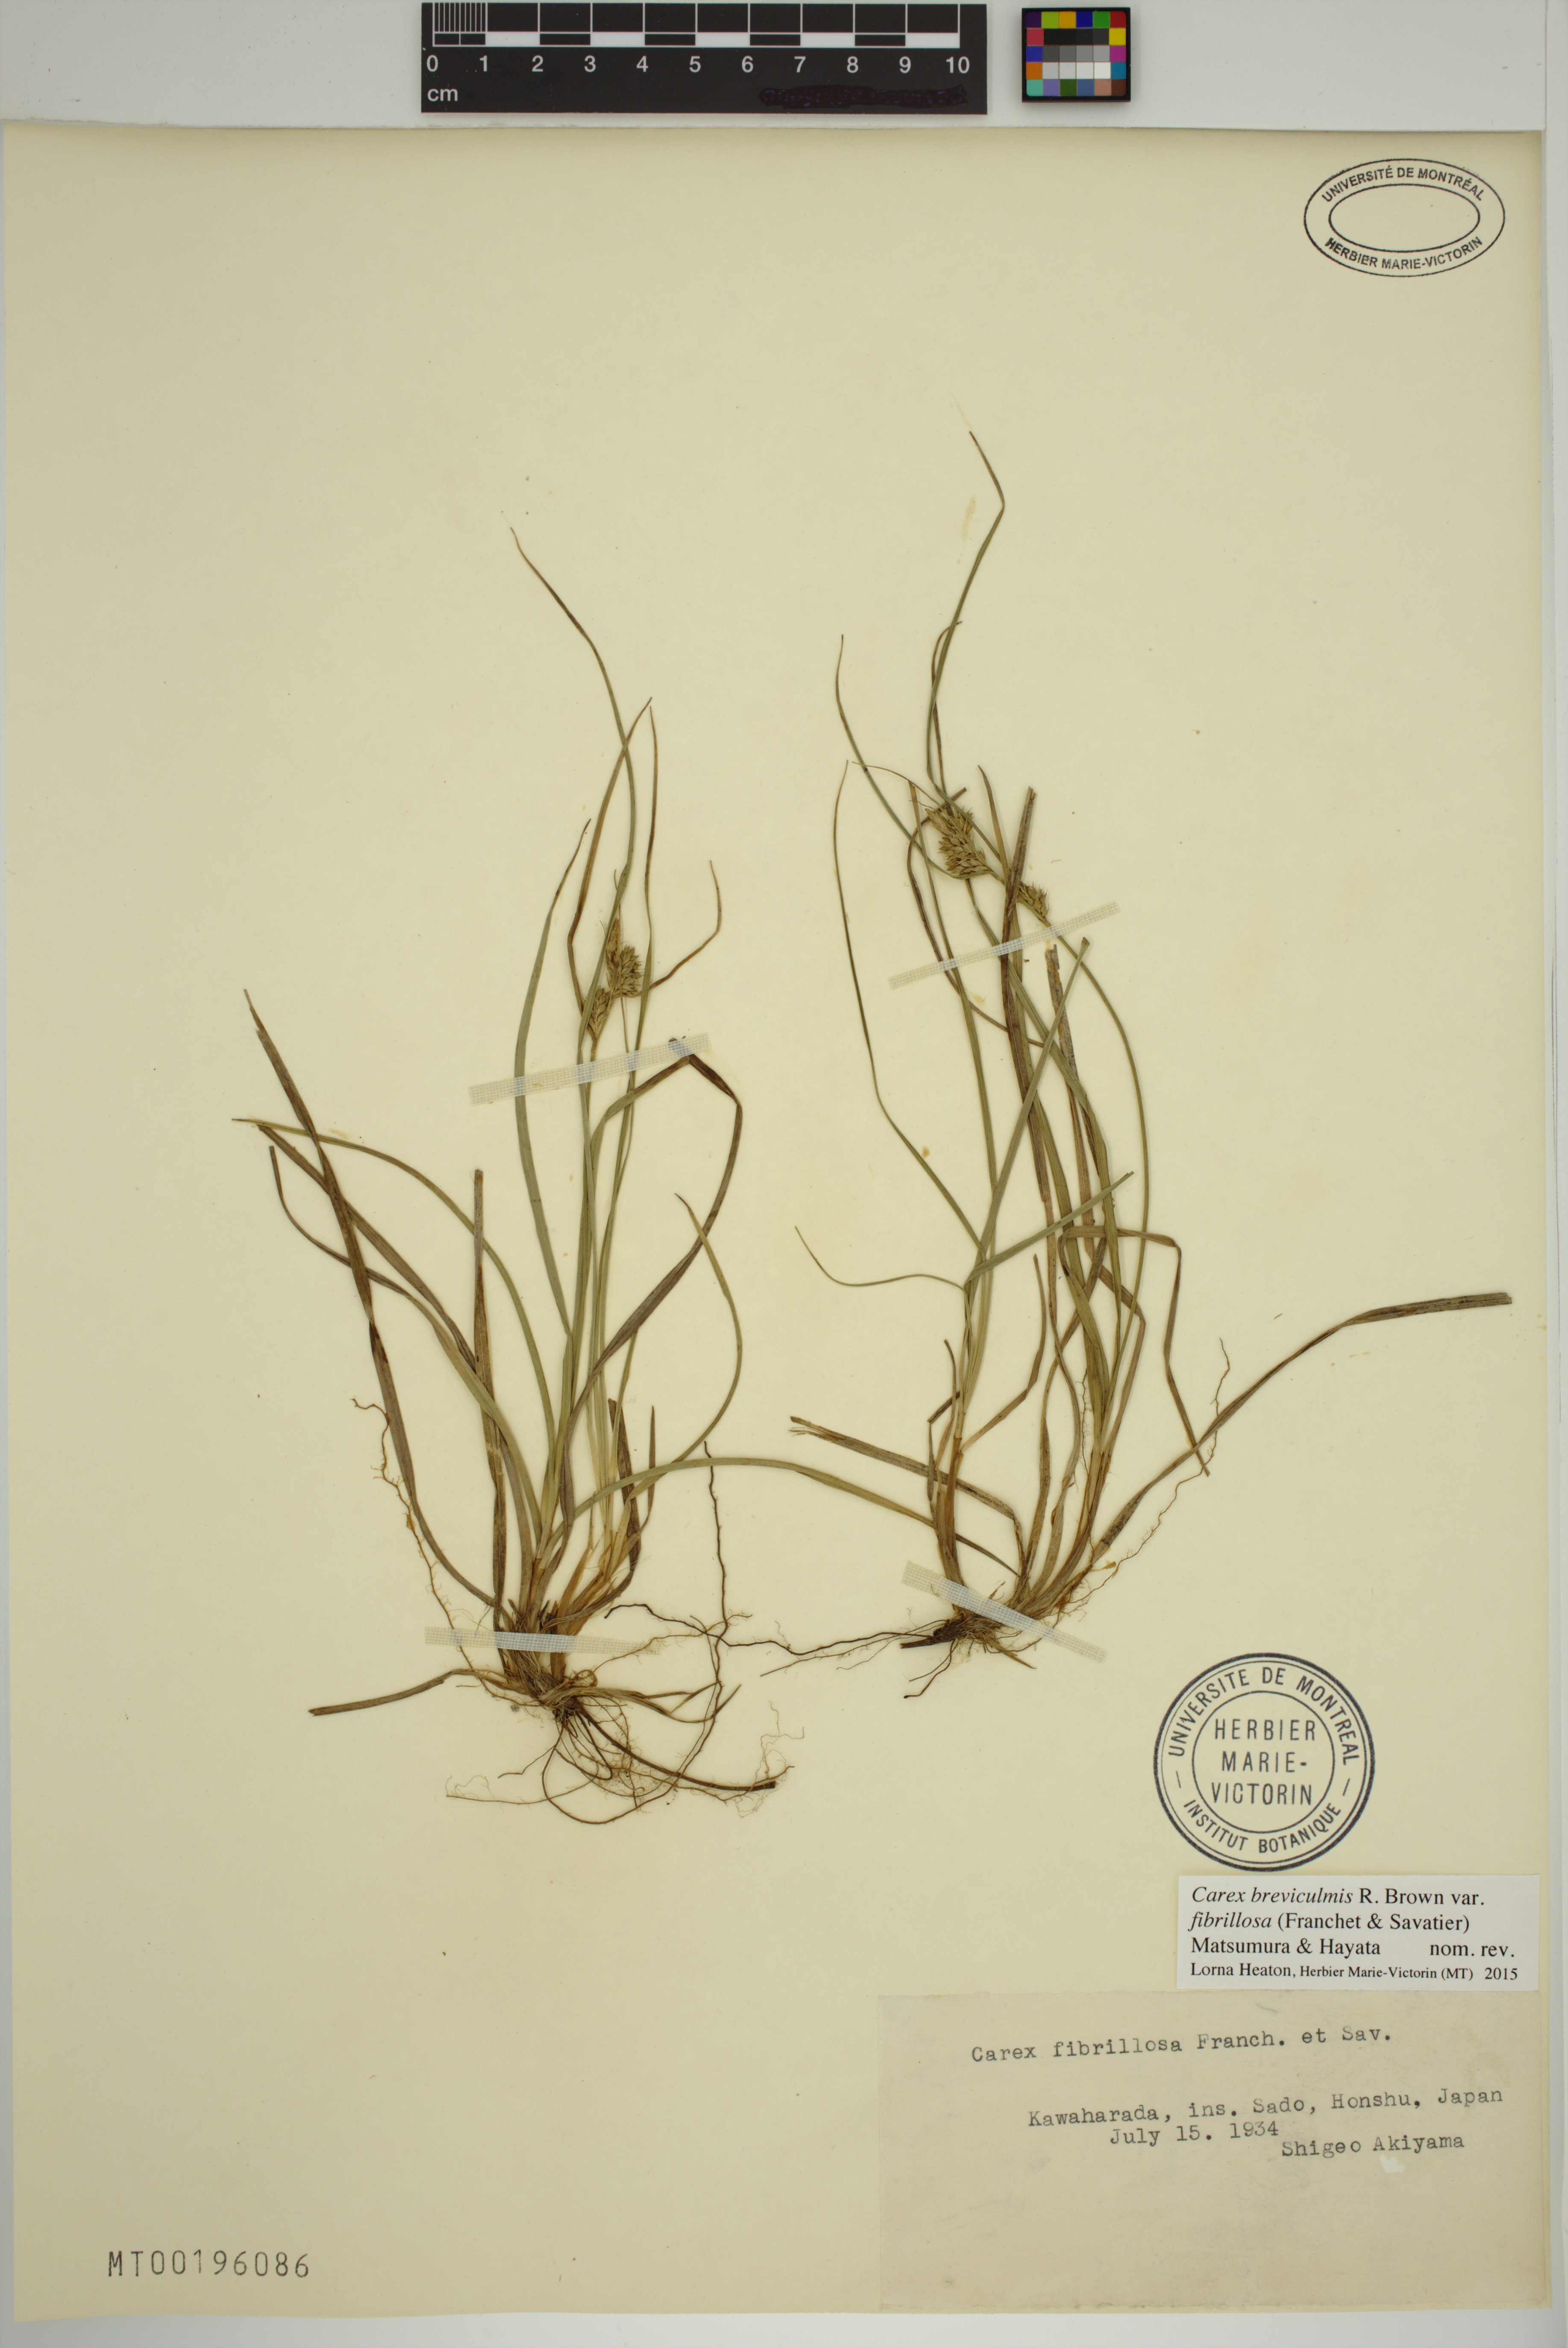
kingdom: Plantae
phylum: Tracheophyta
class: Liliopsida
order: Poales
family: Cyperaceae
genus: Carex
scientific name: Carex fibrillosa
